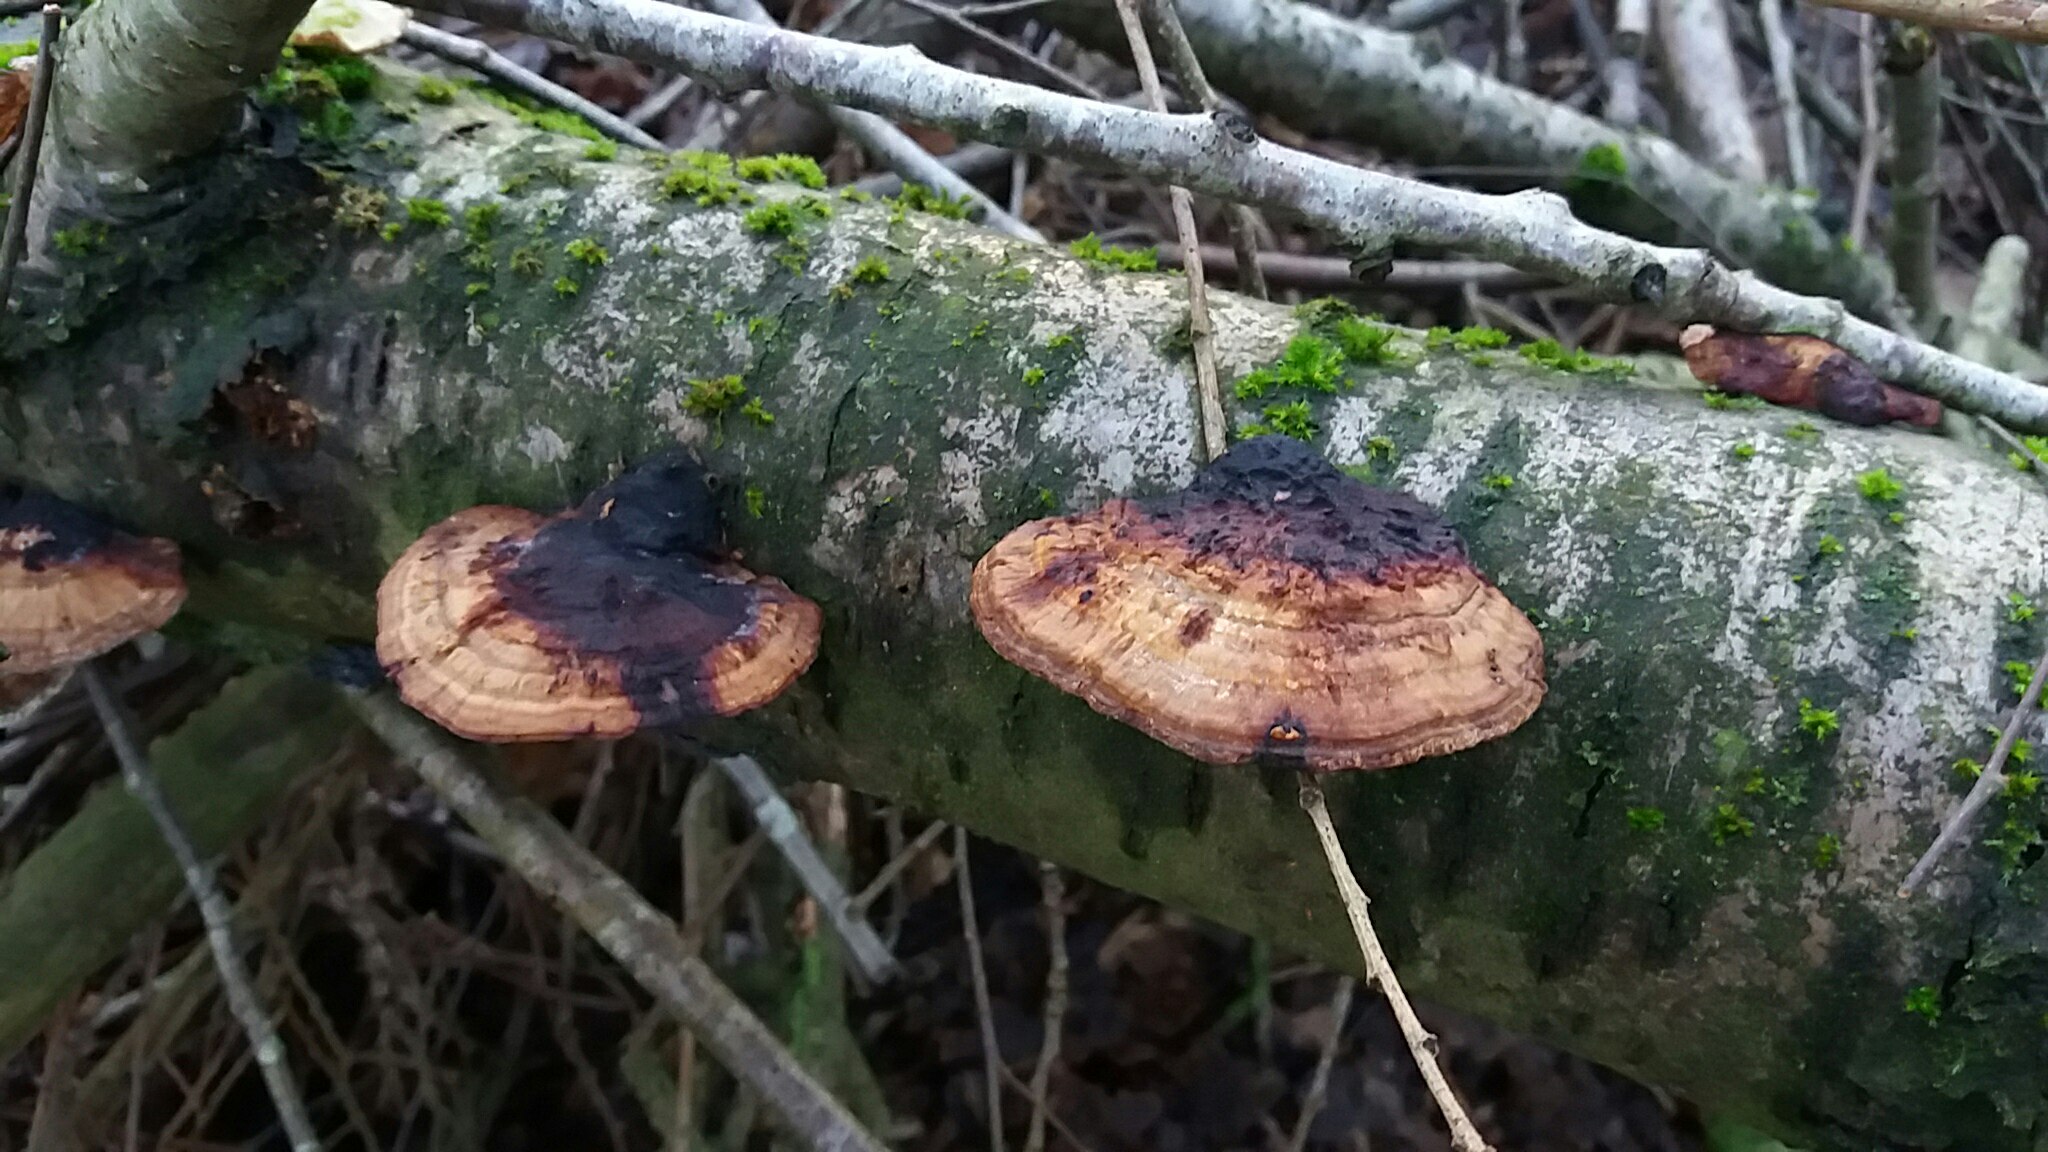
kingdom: Fungi
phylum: Basidiomycota
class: Agaricomycetes
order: Polyporales
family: Polyporaceae
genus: Daedaleopsis
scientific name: Daedaleopsis confragosa
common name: rødmende læderporesvamp
